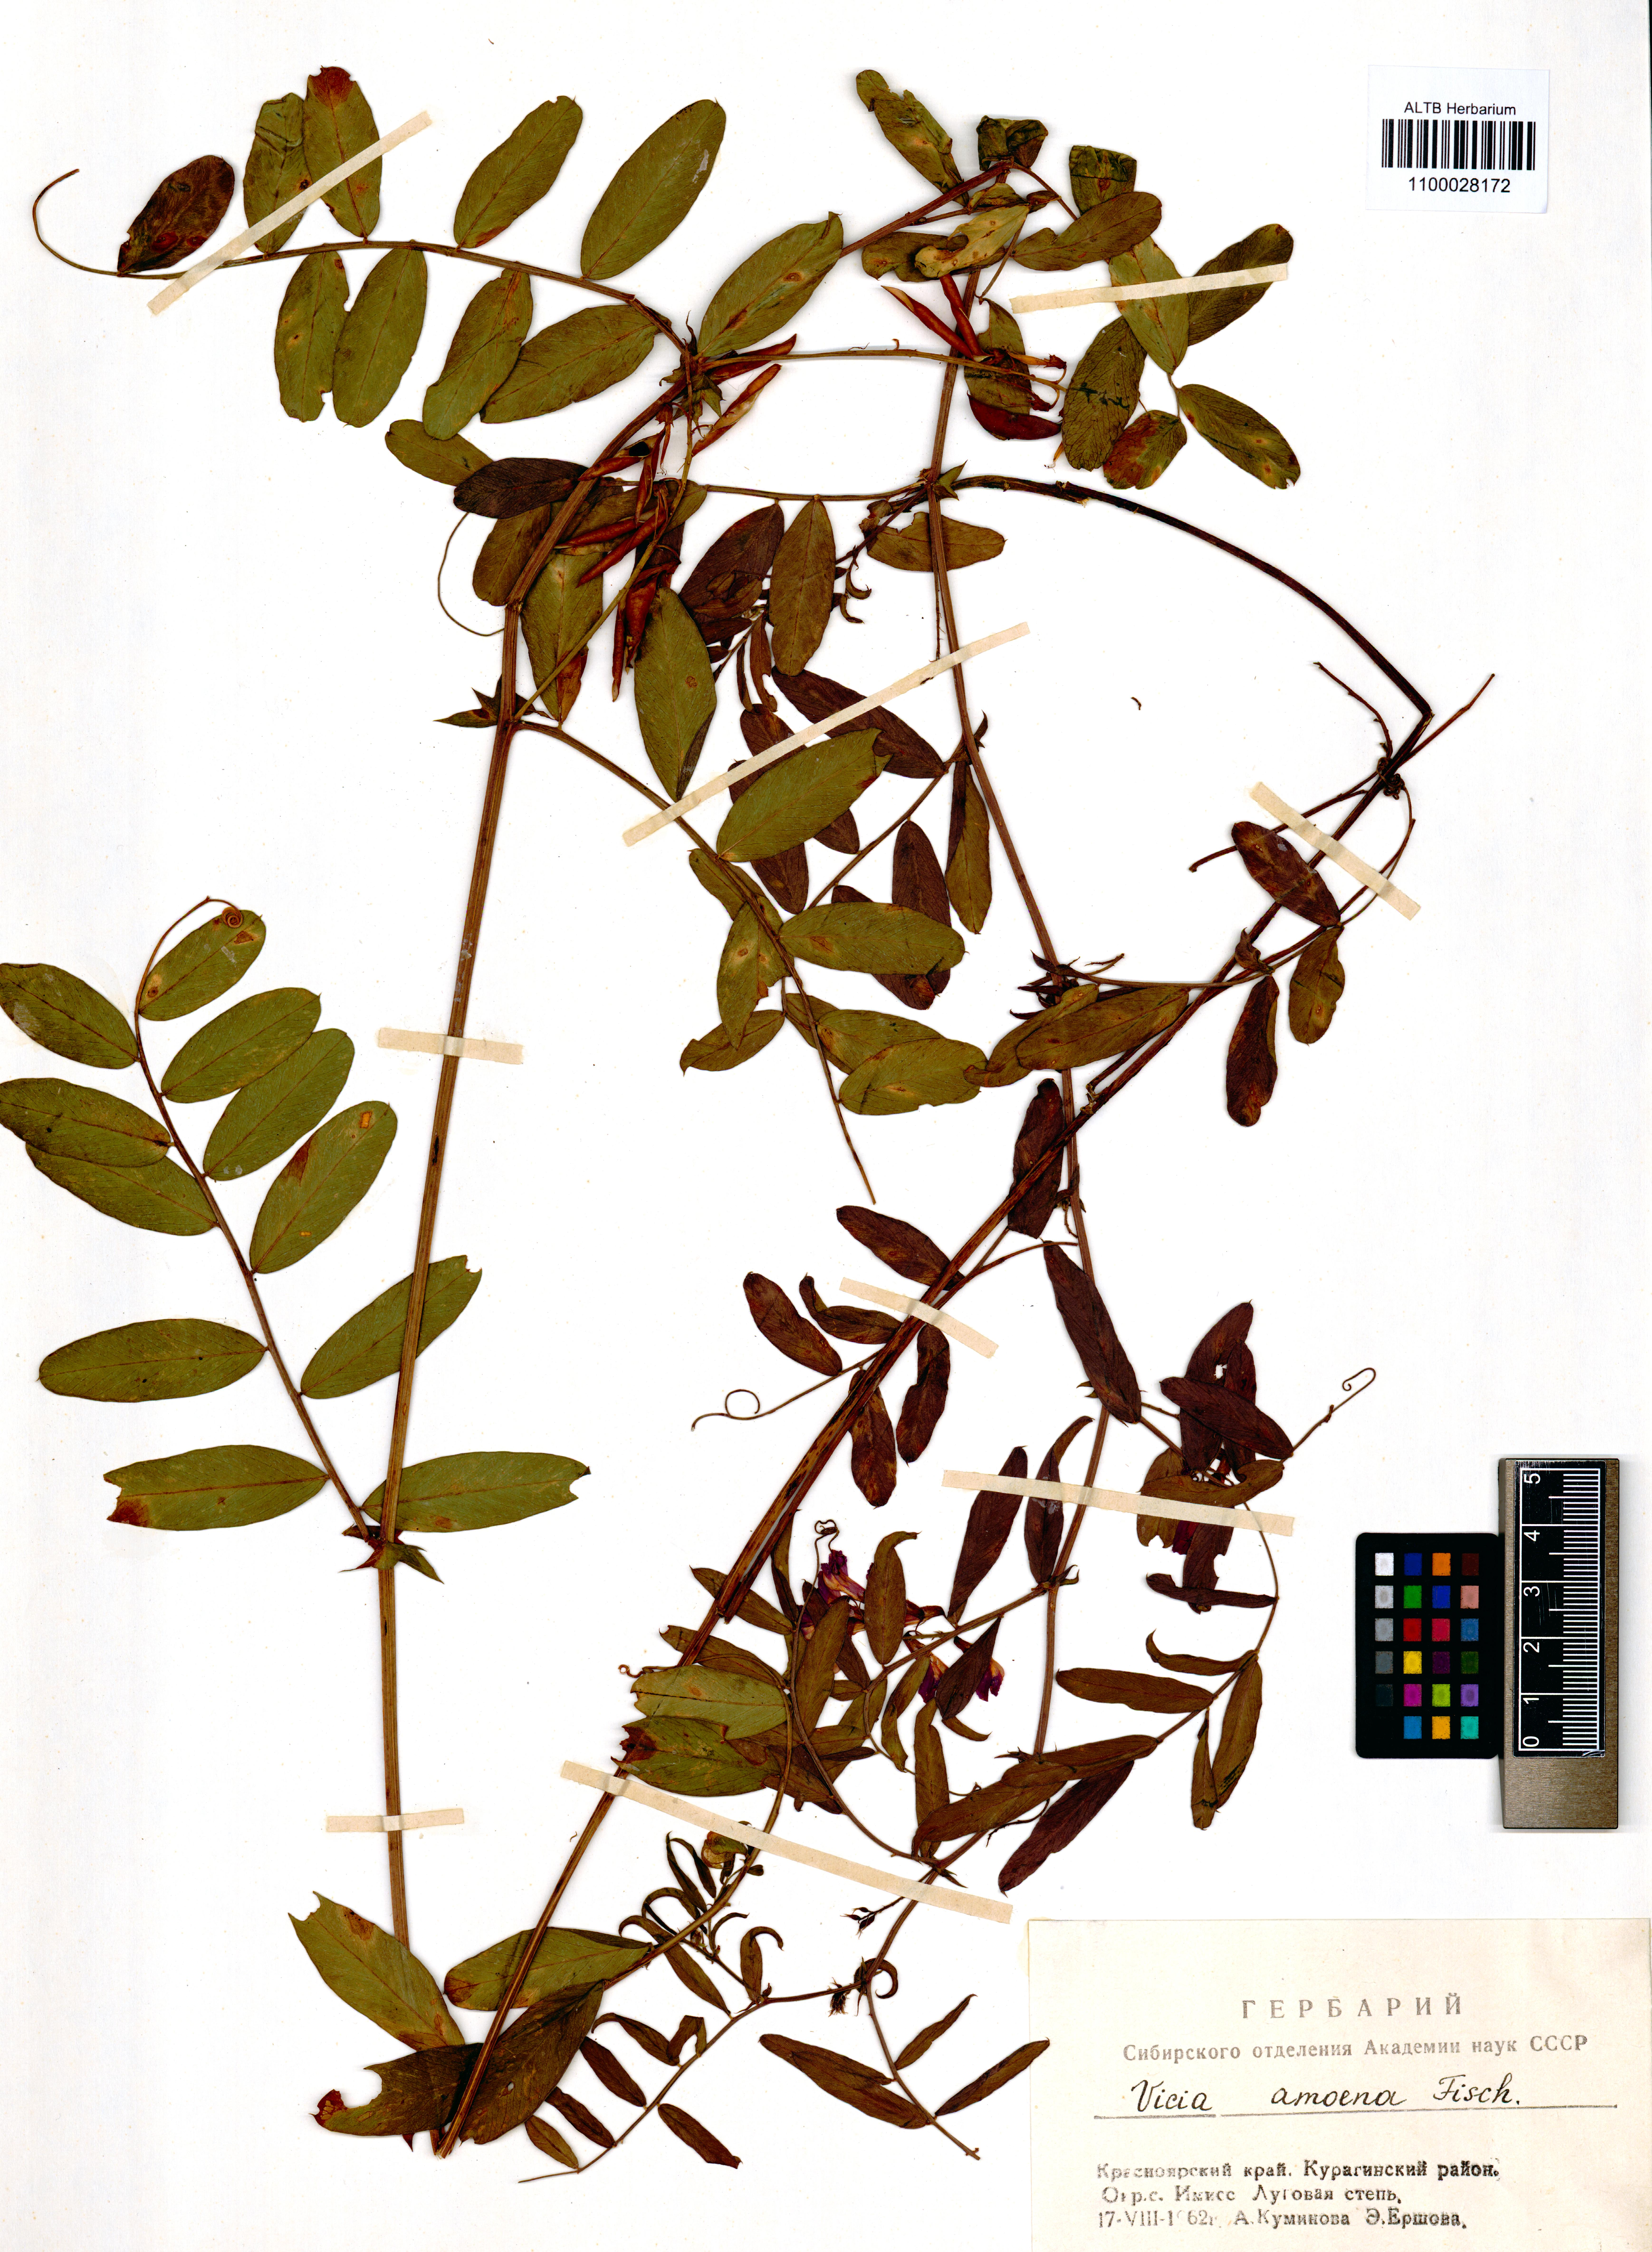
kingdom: Plantae
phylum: Tracheophyta
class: Magnoliopsida
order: Fabales
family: Fabaceae
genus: Vicia
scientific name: Vicia amoena
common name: Cheder ebs
